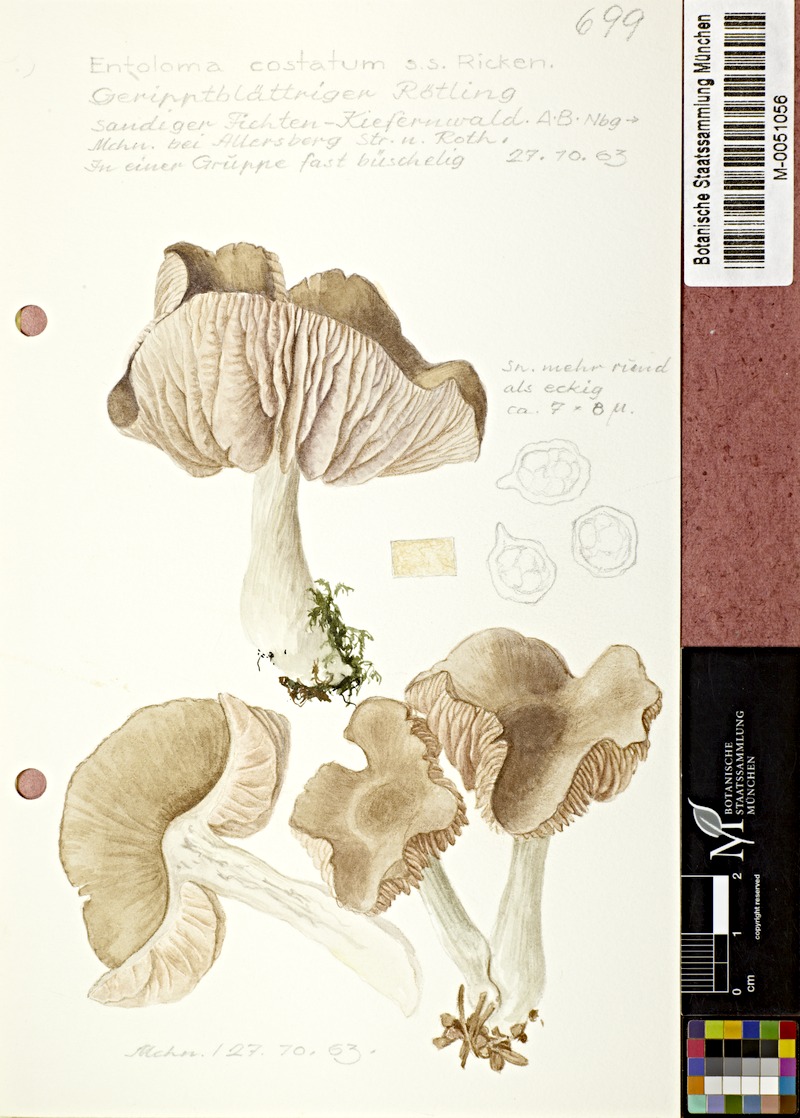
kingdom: Fungi
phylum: Basidiomycota
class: Agaricomycetes
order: Agaricales
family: Entolomataceae
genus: Entoloma
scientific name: Entoloma costatum
